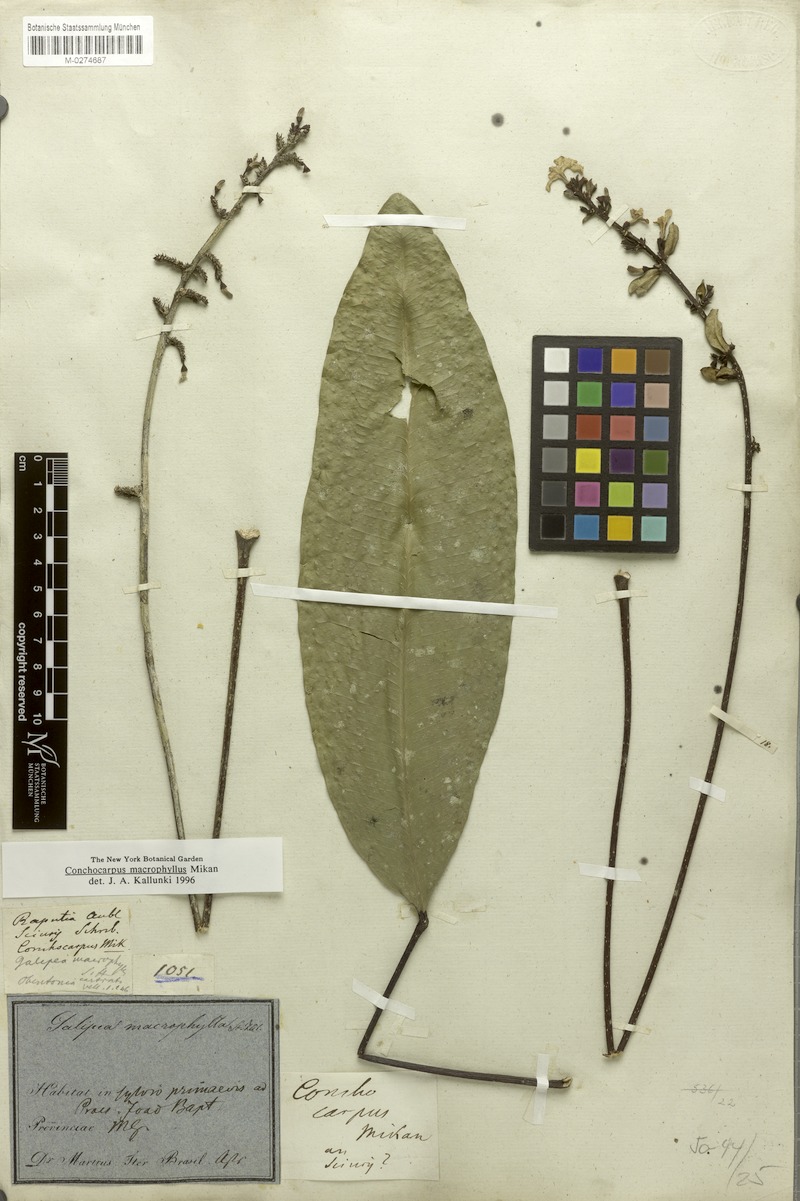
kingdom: Plantae
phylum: Tracheophyta
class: Magnoliopsida
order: Sapindales
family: Rutaceae
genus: Conchocarpus
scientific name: Conchocarpus macrophyllus
